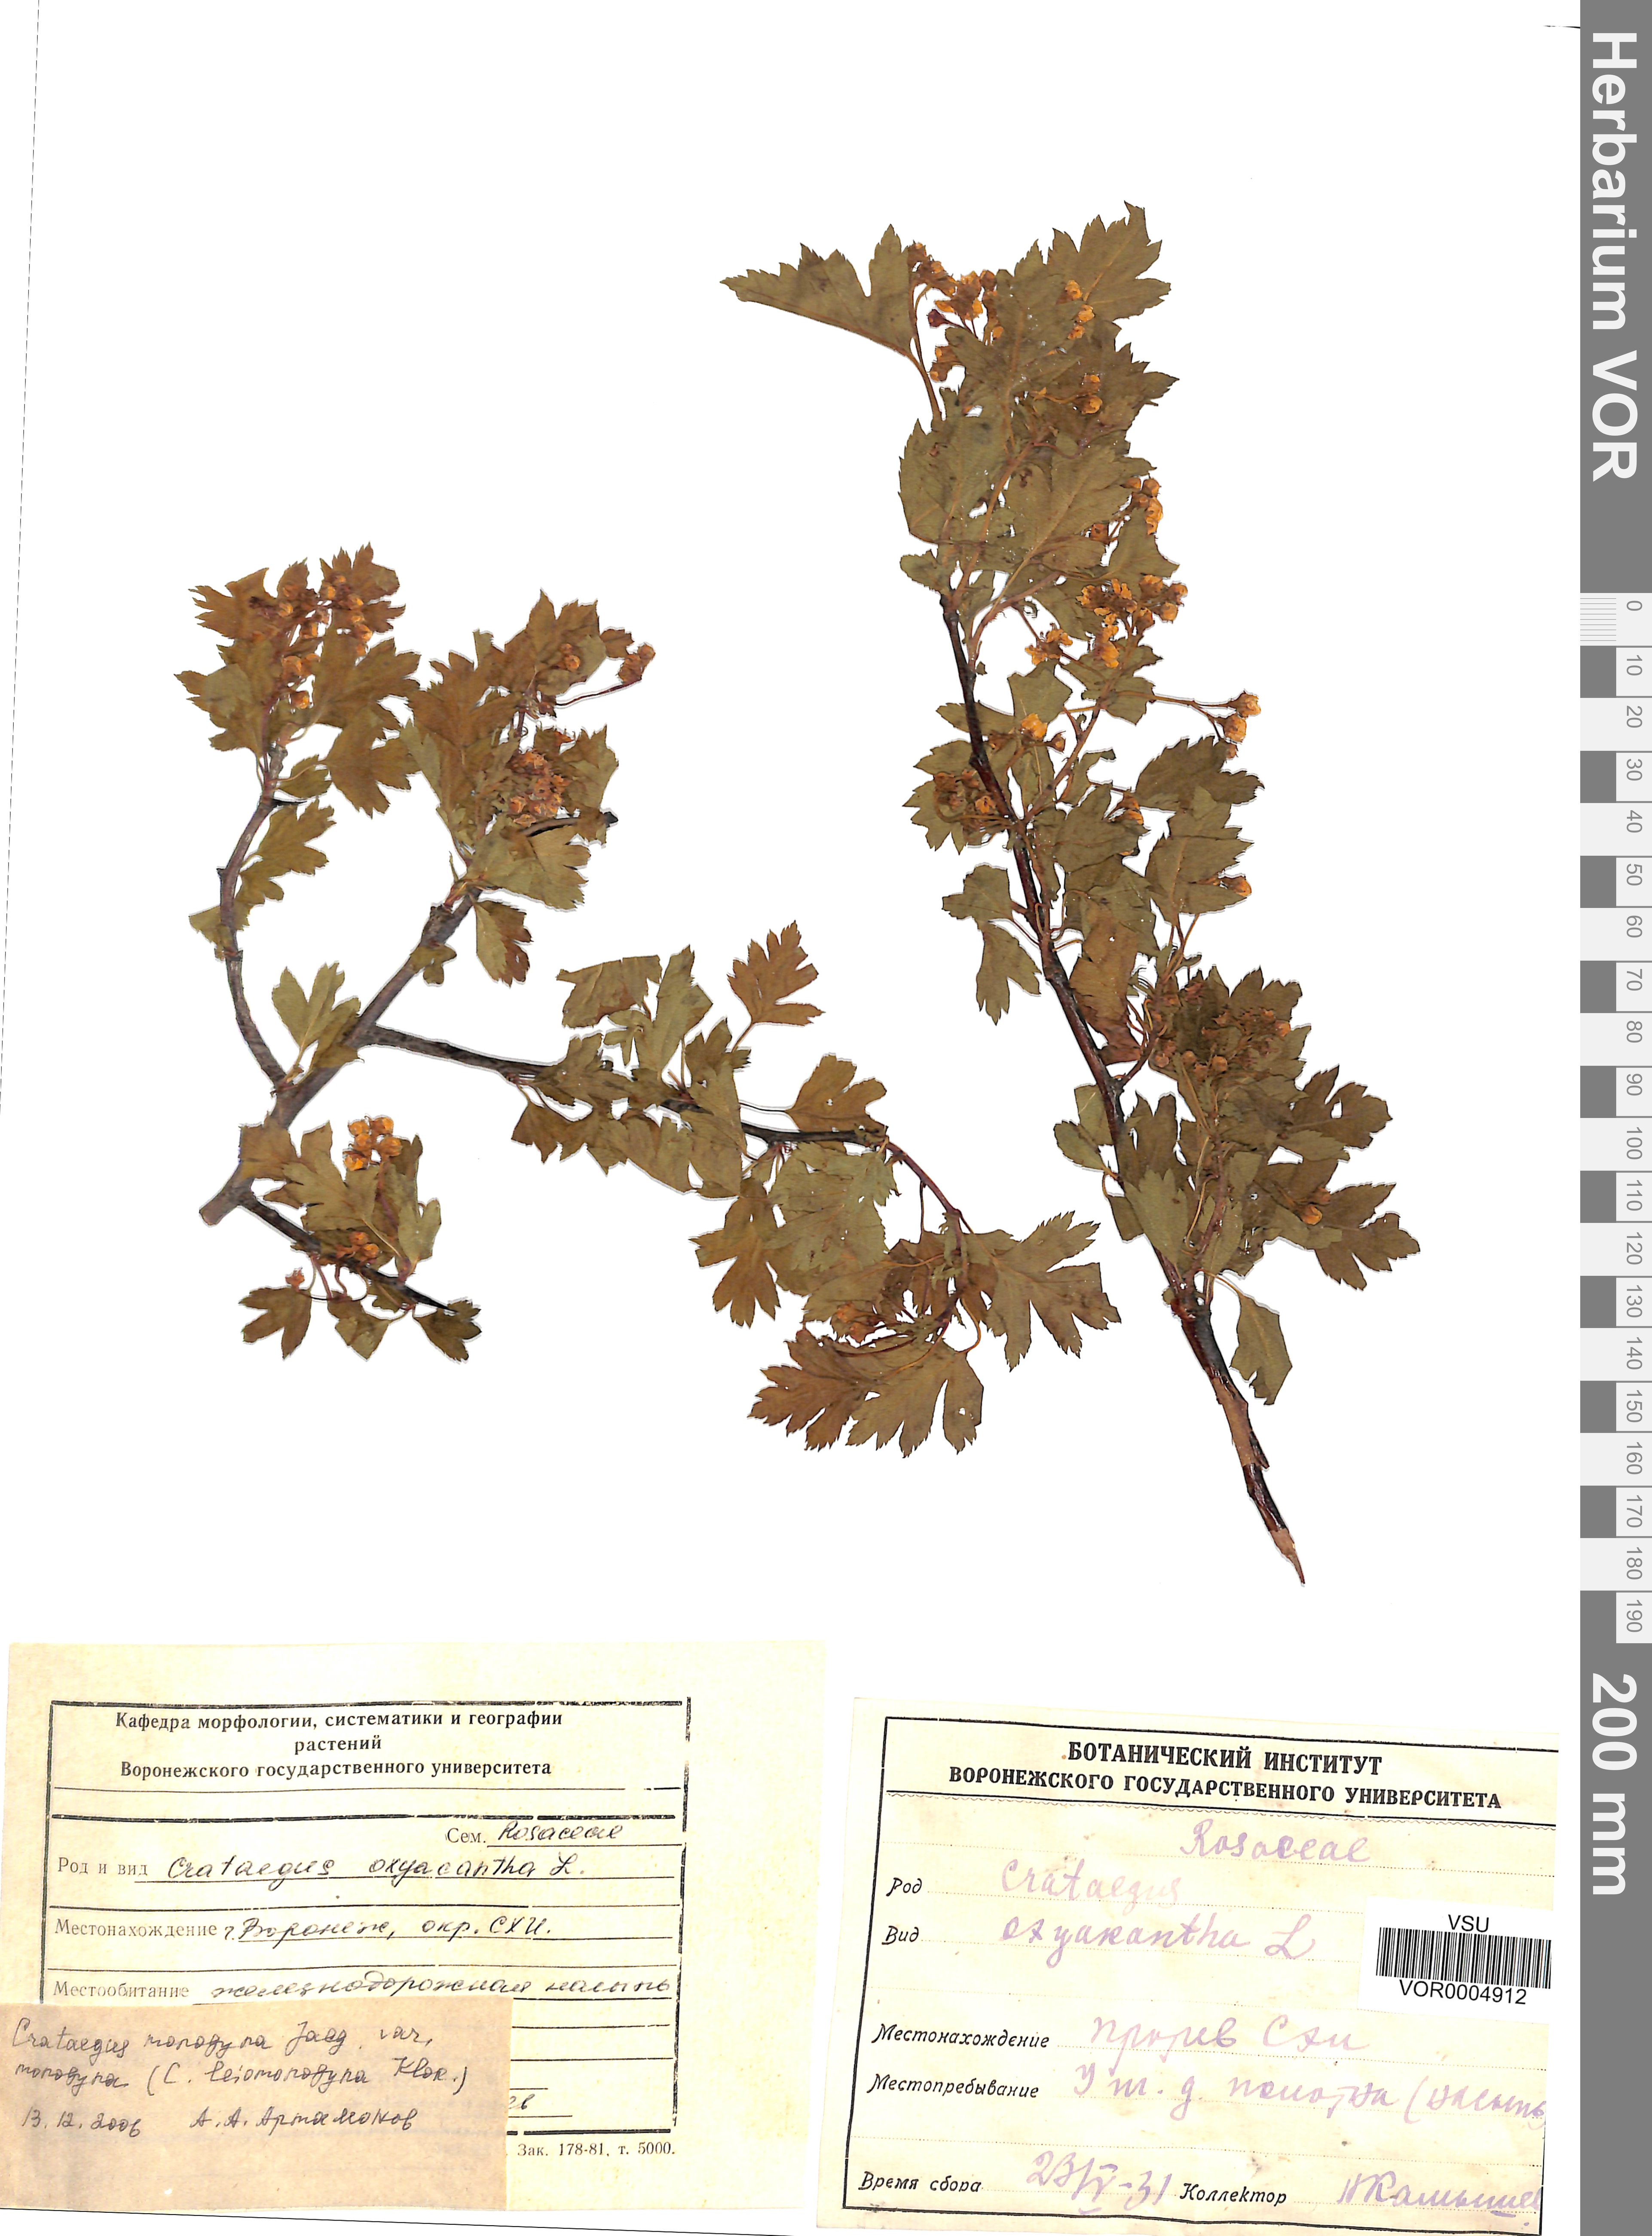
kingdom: Plantae
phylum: Tracheophyta
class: Magnoliopsida
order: Rosales
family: Rosaceae
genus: Crataegus
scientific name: Crataegus monogyna
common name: Hawthorn
